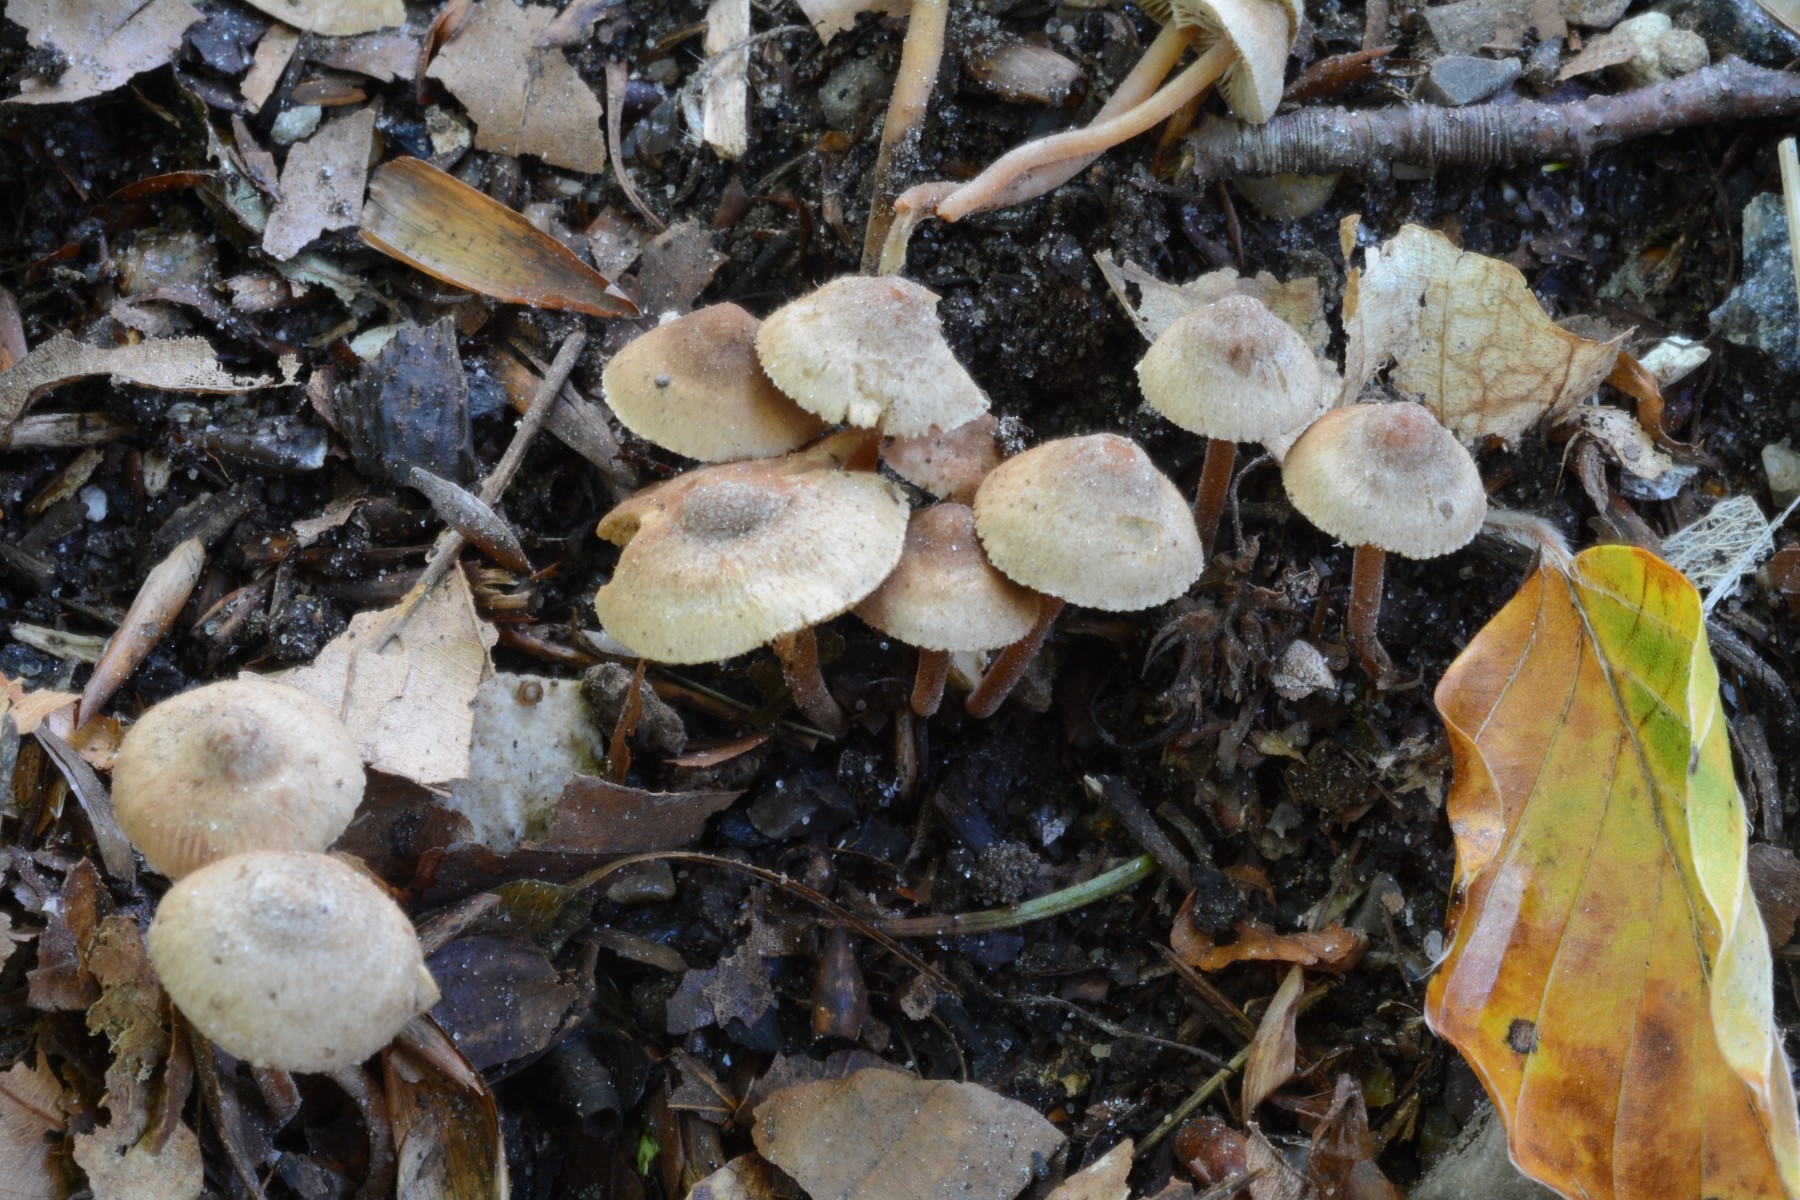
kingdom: Fungi
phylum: Basidiomycota
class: Agaricomycetes
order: Agaricales
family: Inocybaceae
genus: Inocybe
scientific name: Inocybe petiginosa
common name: liden trævlhat
